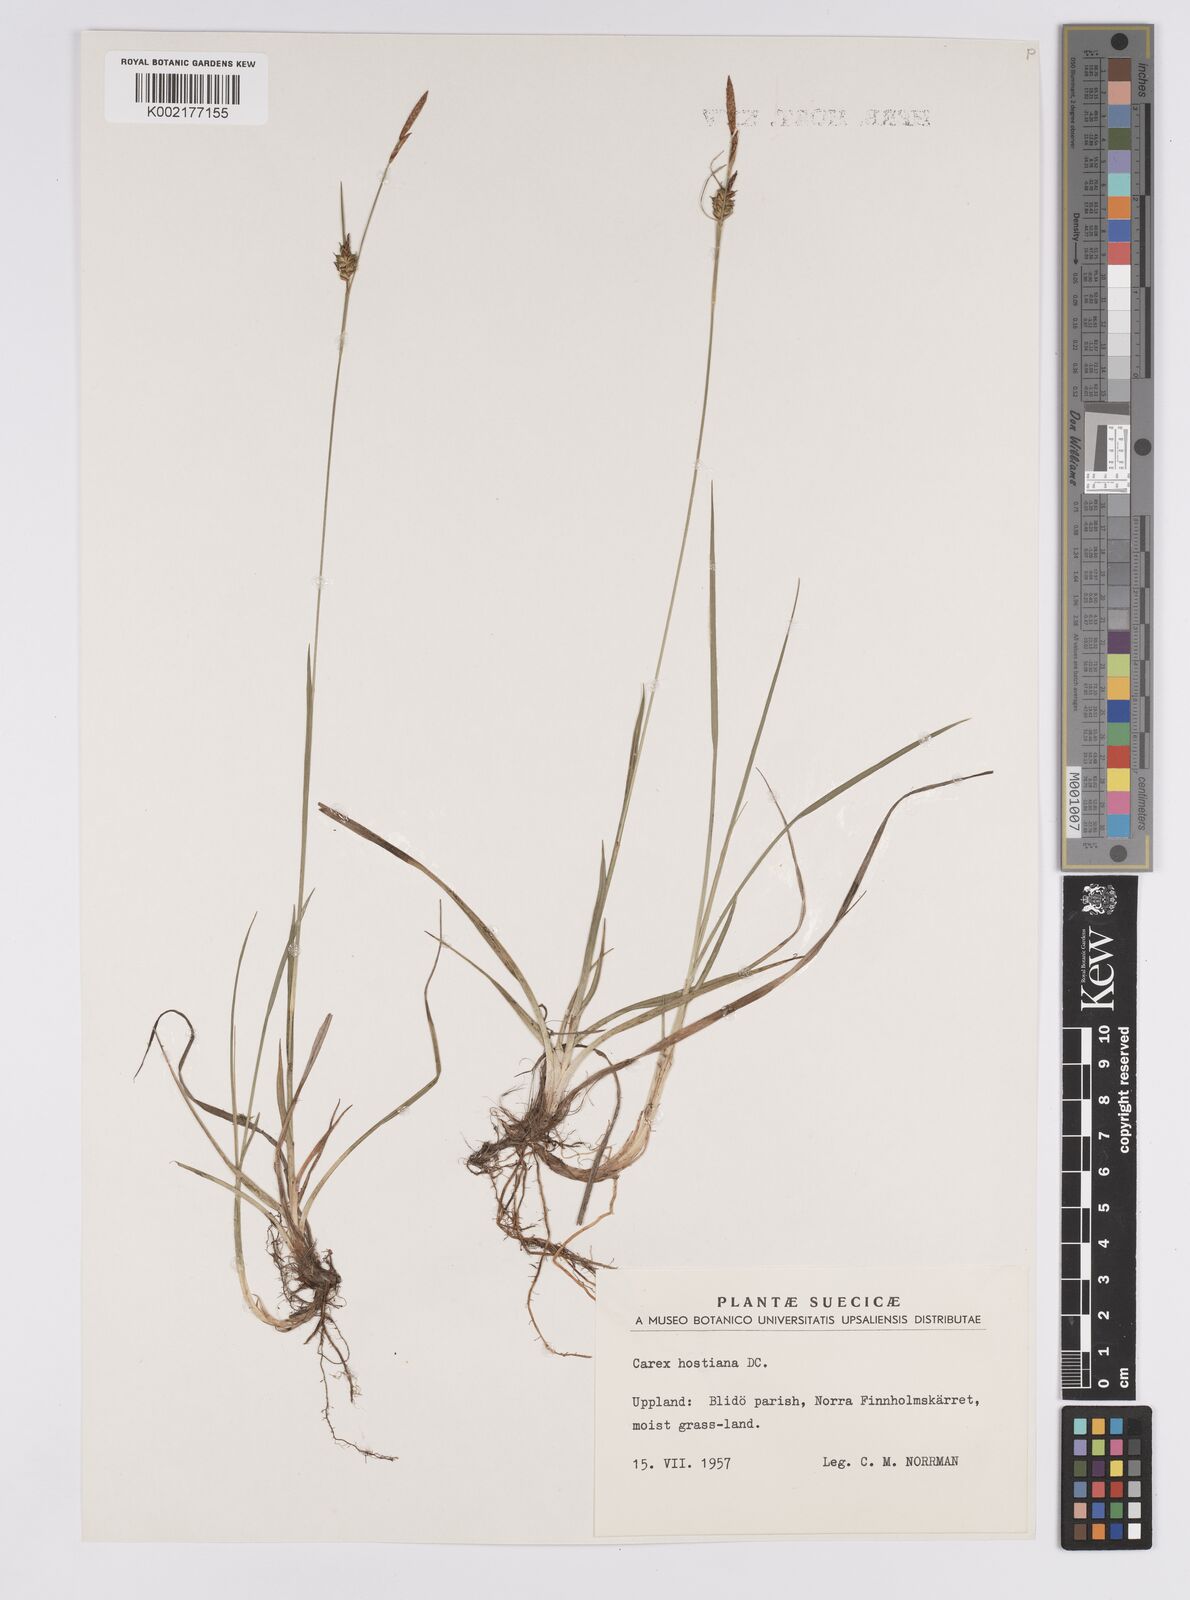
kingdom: Plantae
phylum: Tracheophyta
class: Liliopsida
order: Poales
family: Cyperaceae
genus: Carex
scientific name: Carex hostiana
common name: Tawny sedge
